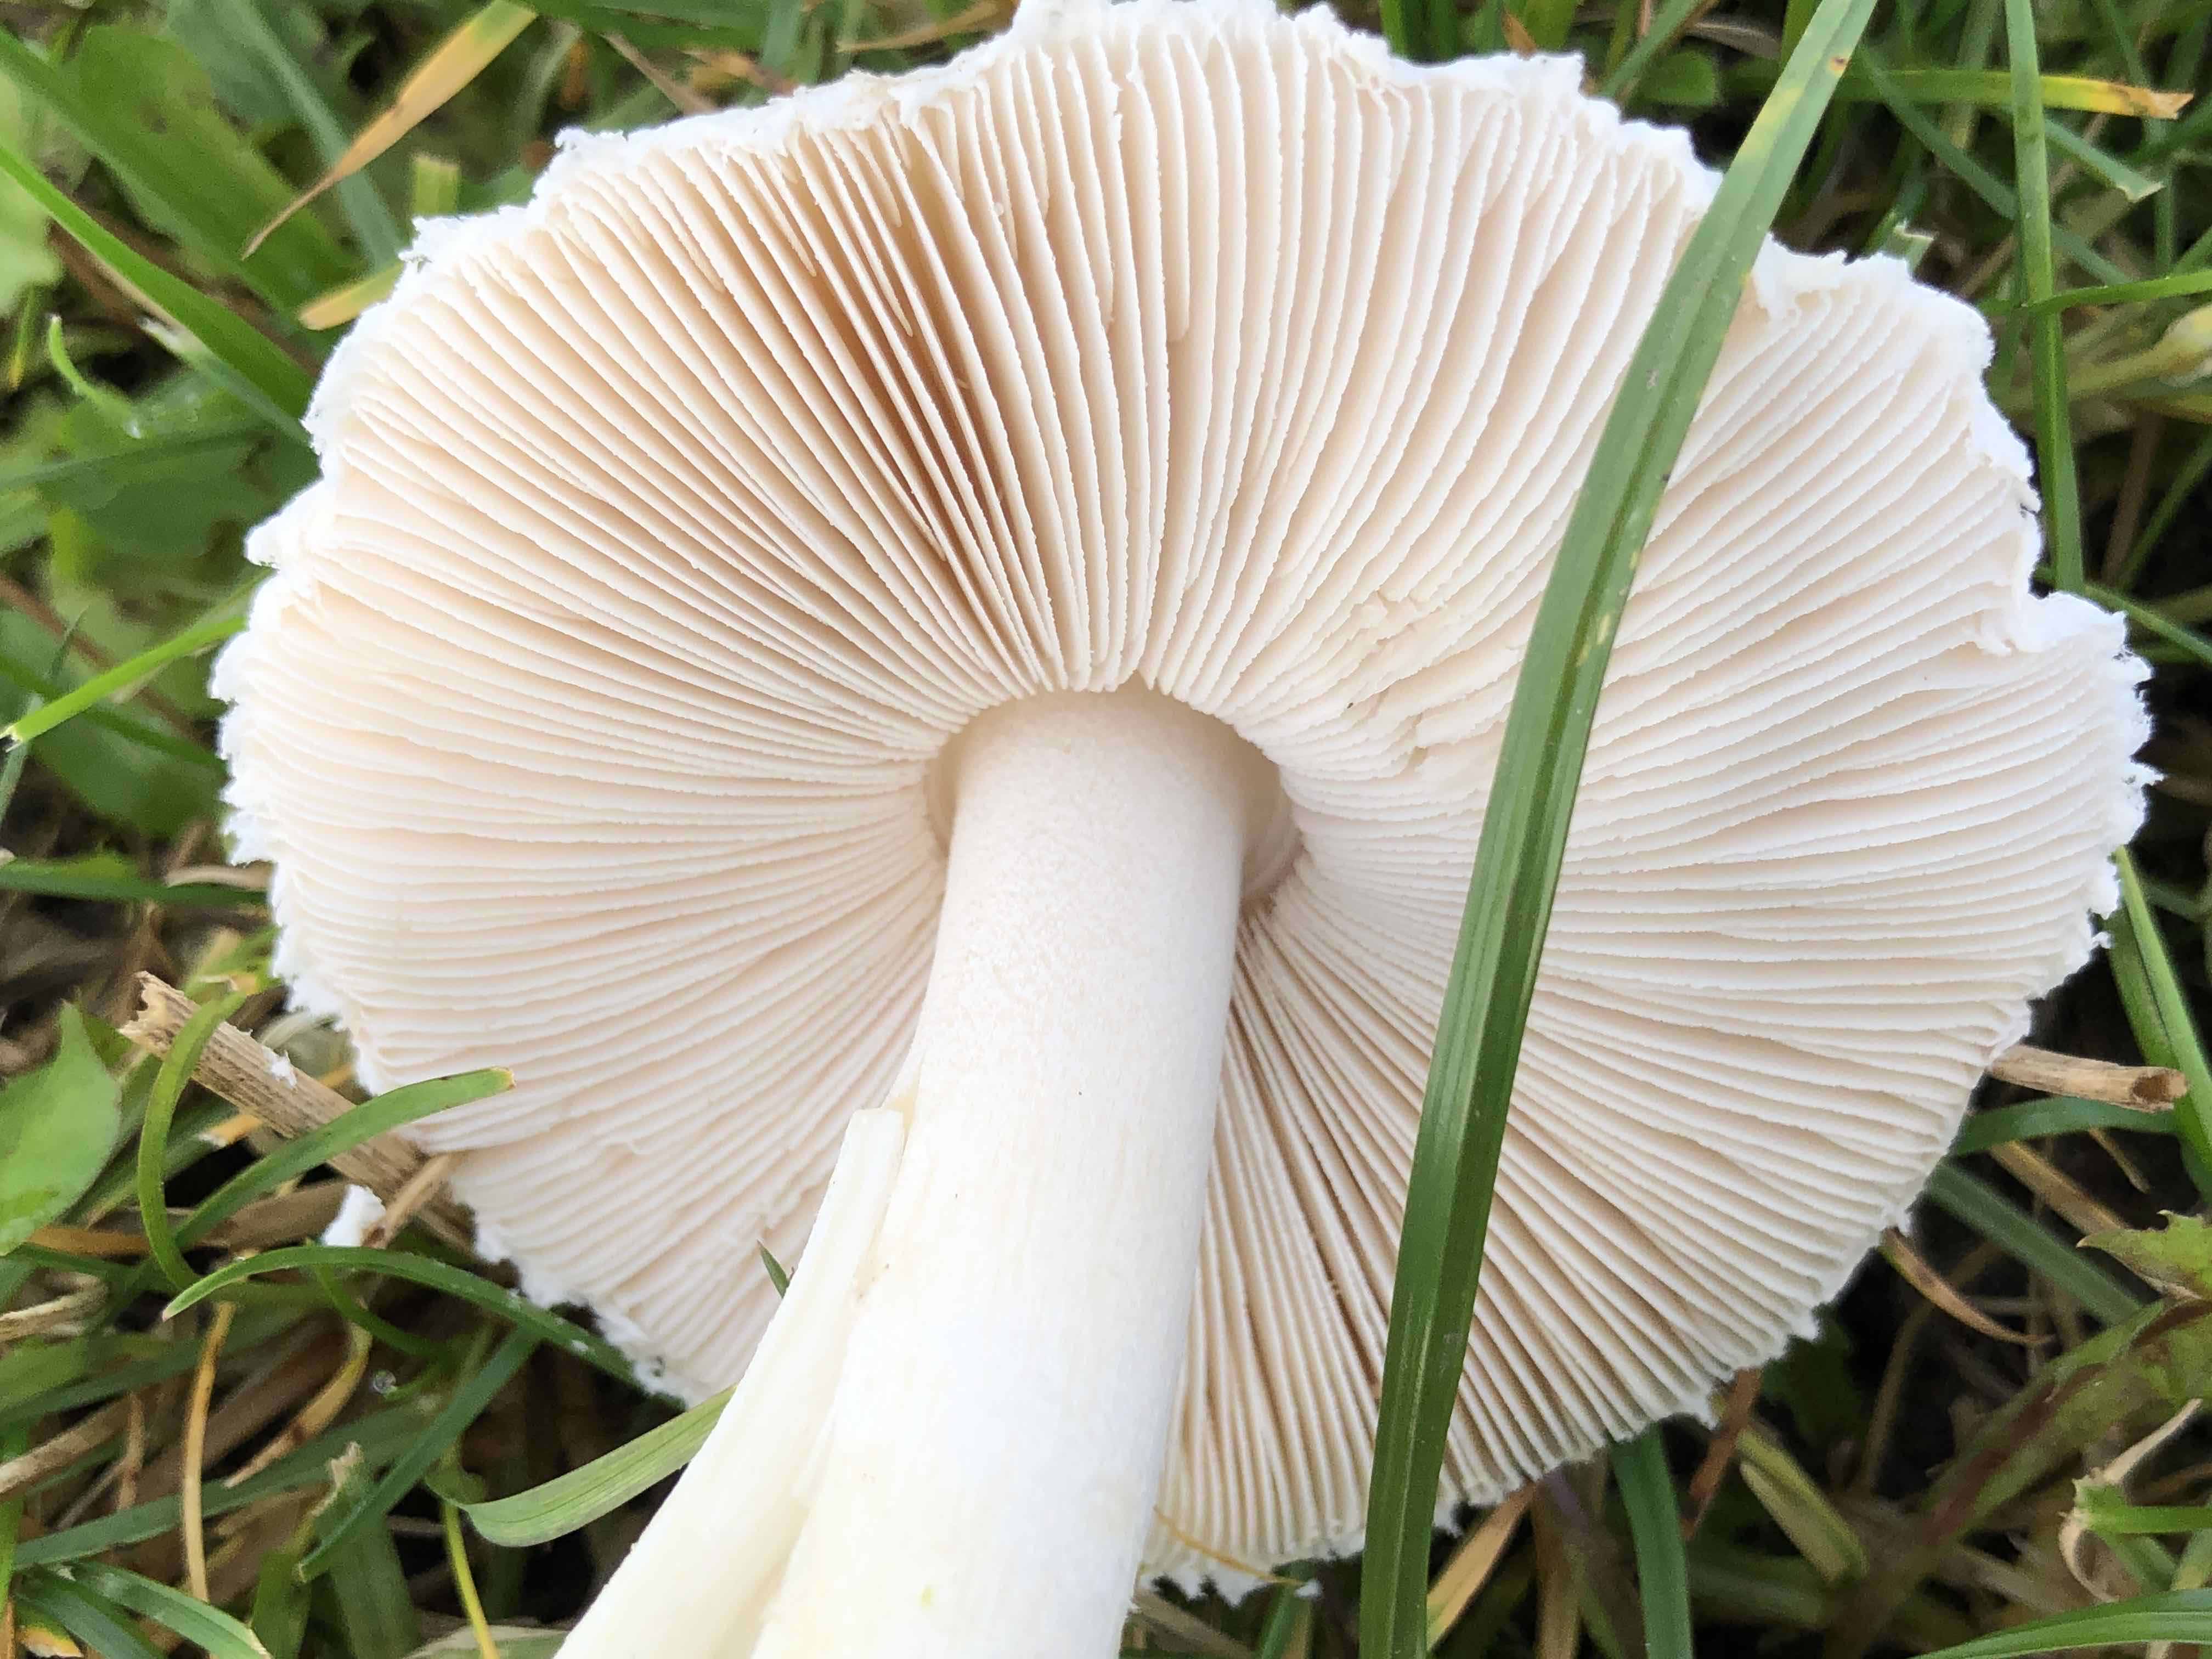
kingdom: Fungi
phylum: Basidiomycota
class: Agaricomycetes
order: Agaricales
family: Agaricaceae
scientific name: Agaricaceae
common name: champignonfamilien
